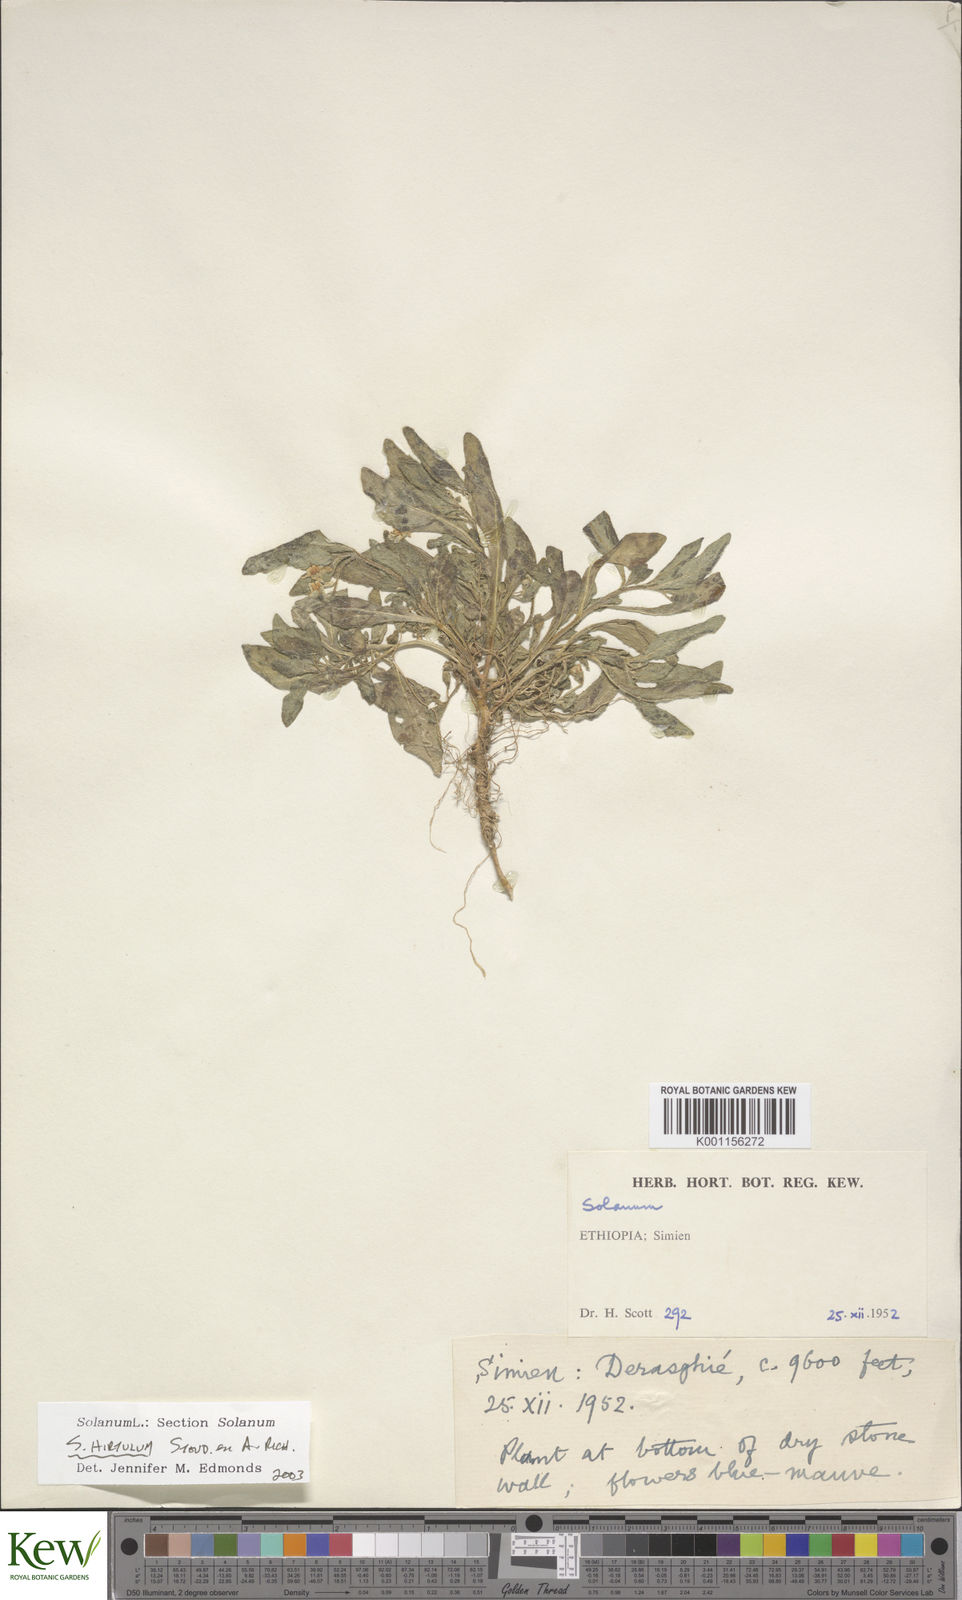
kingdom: Plantae
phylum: Tracheophyta
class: Magnoliopsida
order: Solanales
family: Solanaceae
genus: Solanum
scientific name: Solanum hirtulum
